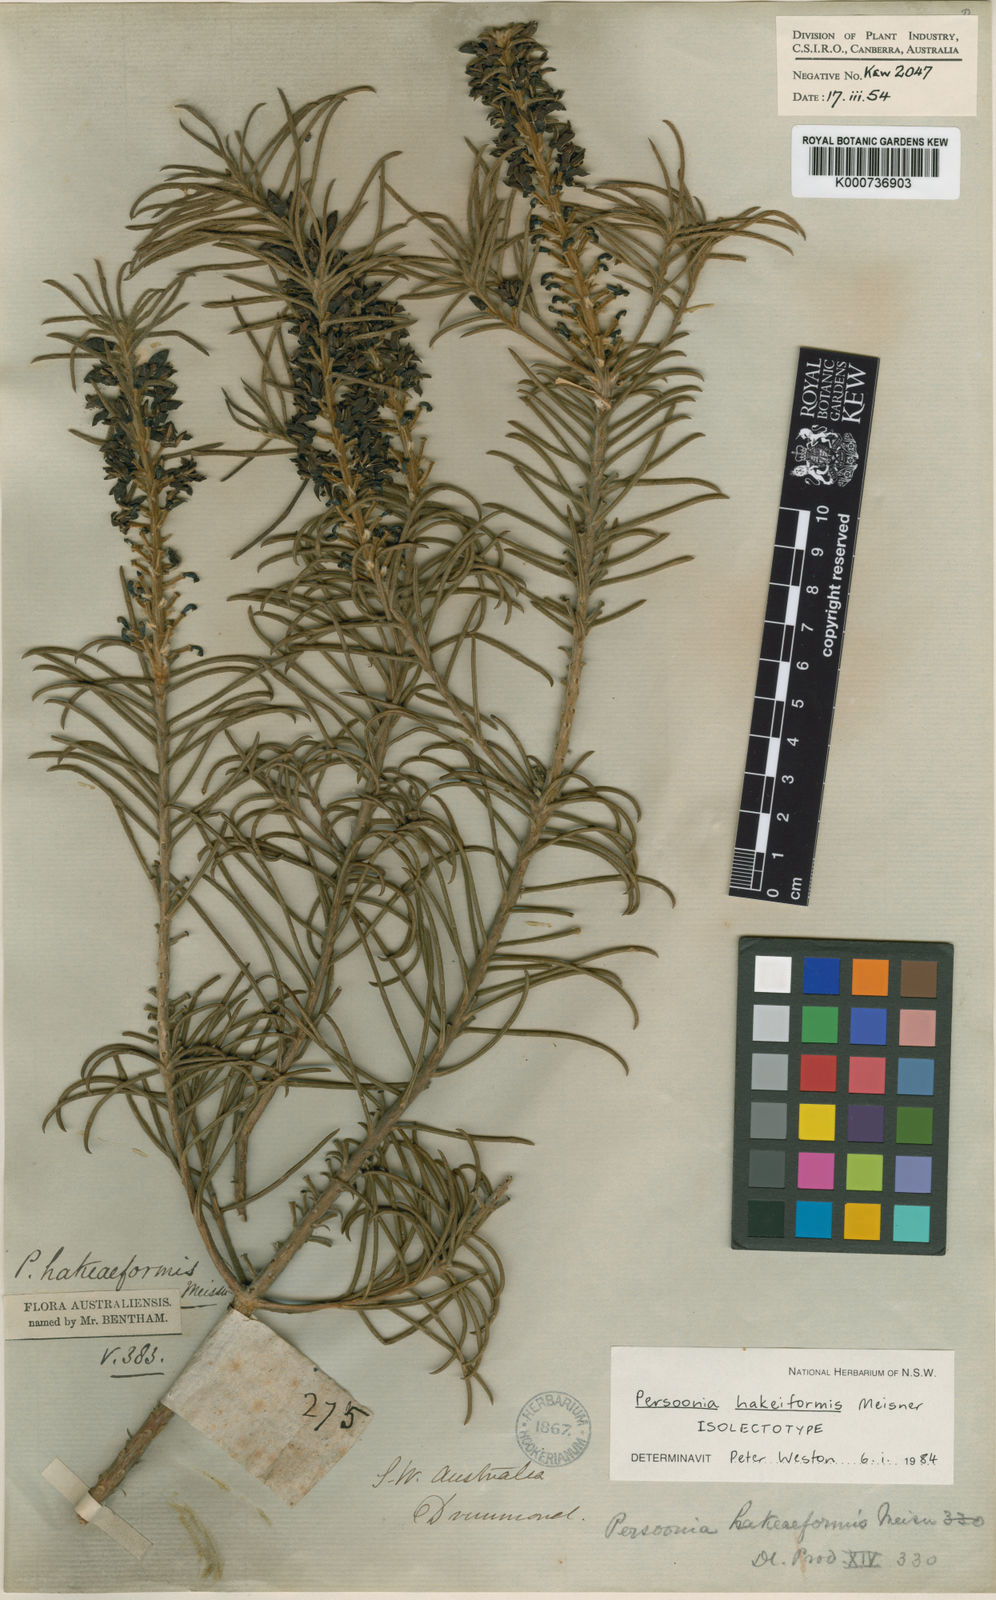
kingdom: Plantae
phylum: Tracheophyta
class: Magnoliopsida
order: Proteales
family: Proteaceae
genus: Persoonia
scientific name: Persoonia hakeiformis
